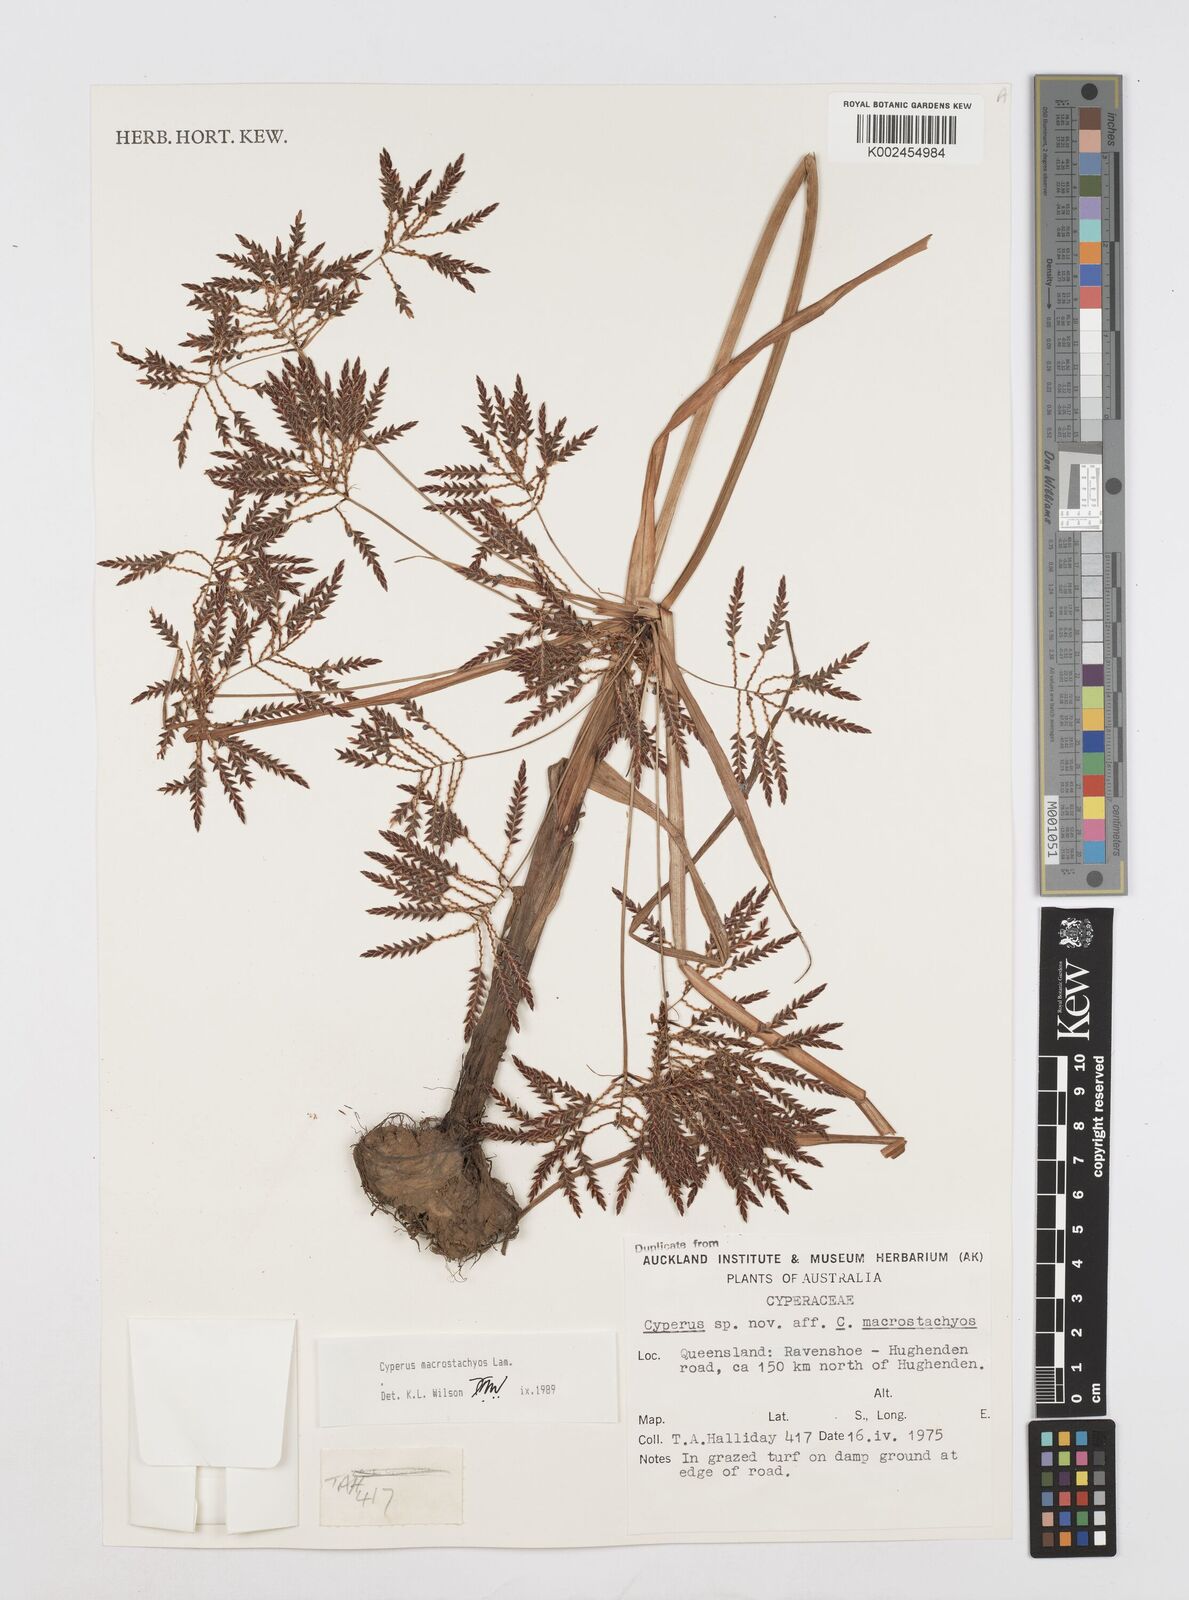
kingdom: Plantae
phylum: Tracheophyta
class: Liliopsida
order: Poales
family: Cyperaceae
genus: Cyperus
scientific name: Cyperus macrostachyos
